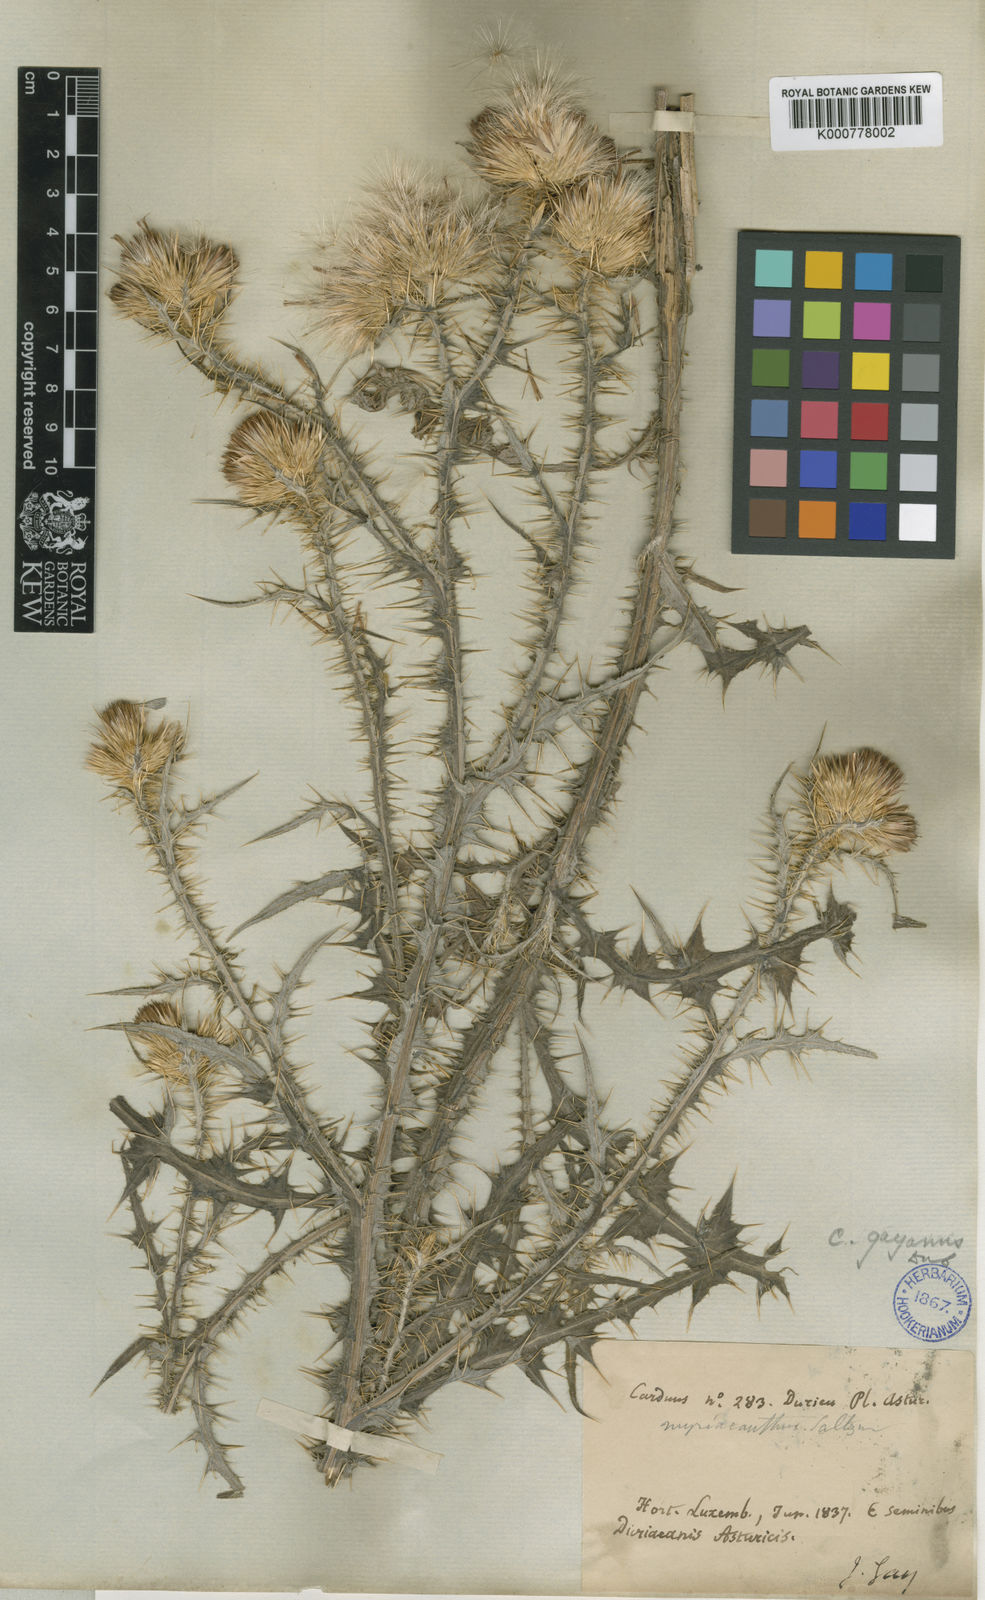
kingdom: Plantae
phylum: Tracheophyta
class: Magnoliopsida
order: Asterales
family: Asteraceae
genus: Carduus
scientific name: Carduus carpetanus
